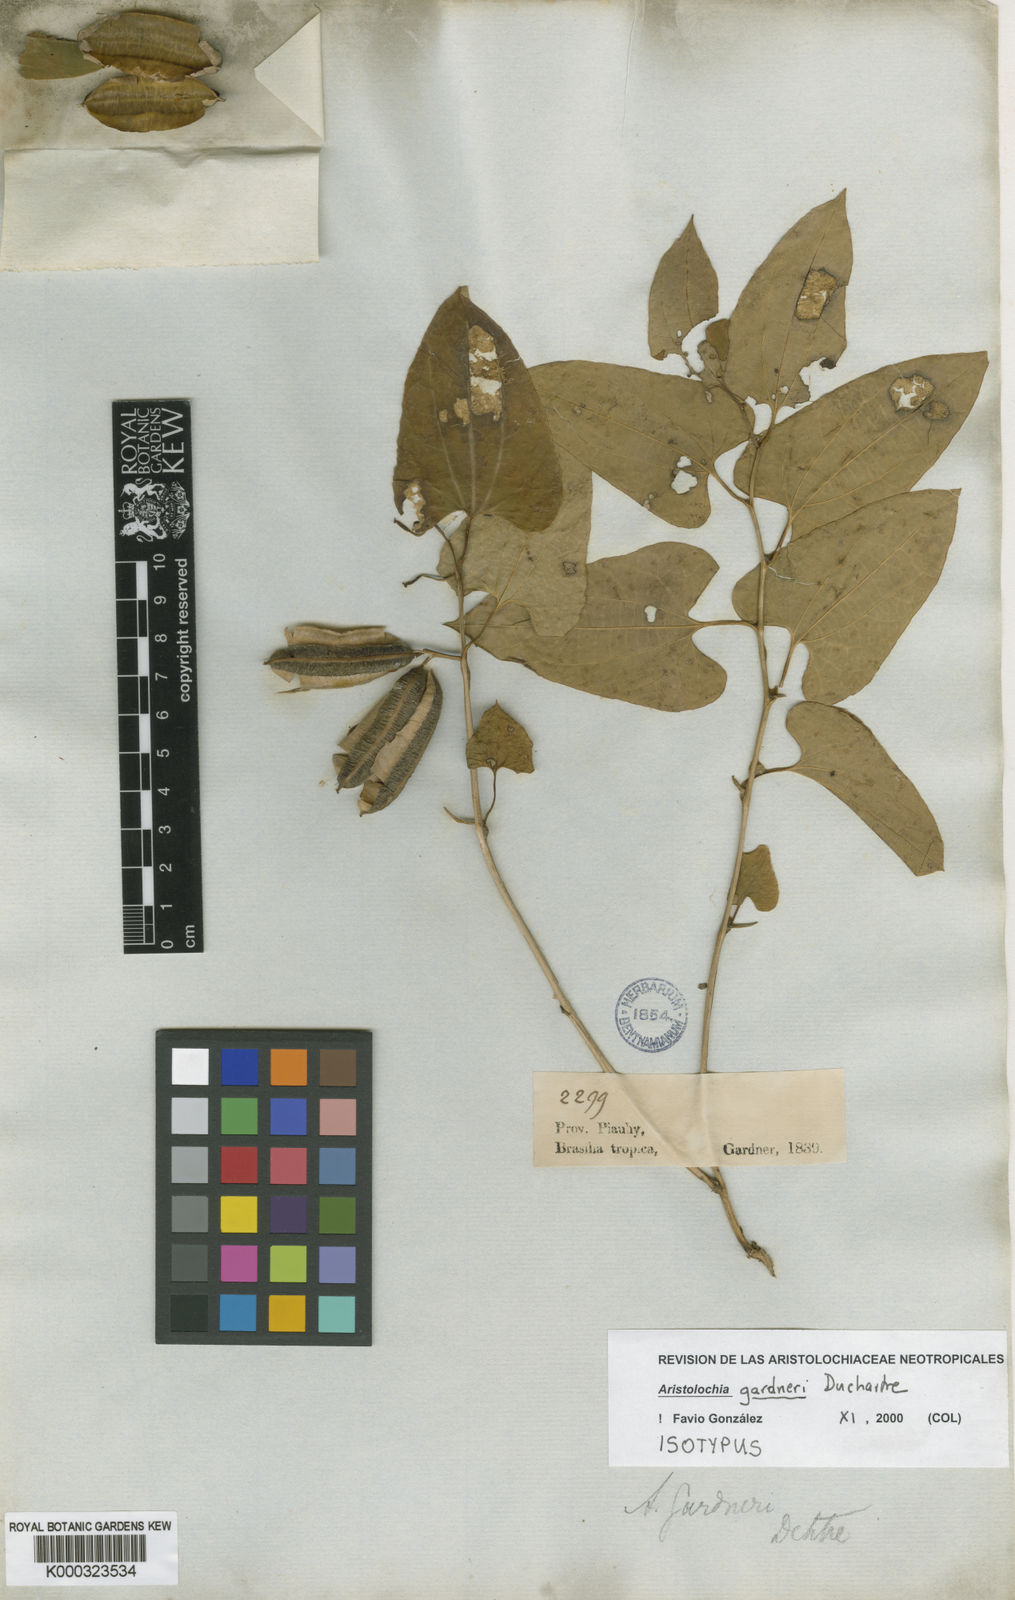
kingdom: Plantae
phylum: Tracheophyta
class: Magnoliopsida
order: Piperales
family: Aristolochiaceae
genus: Aristolochia
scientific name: Aristolochia gardneri
